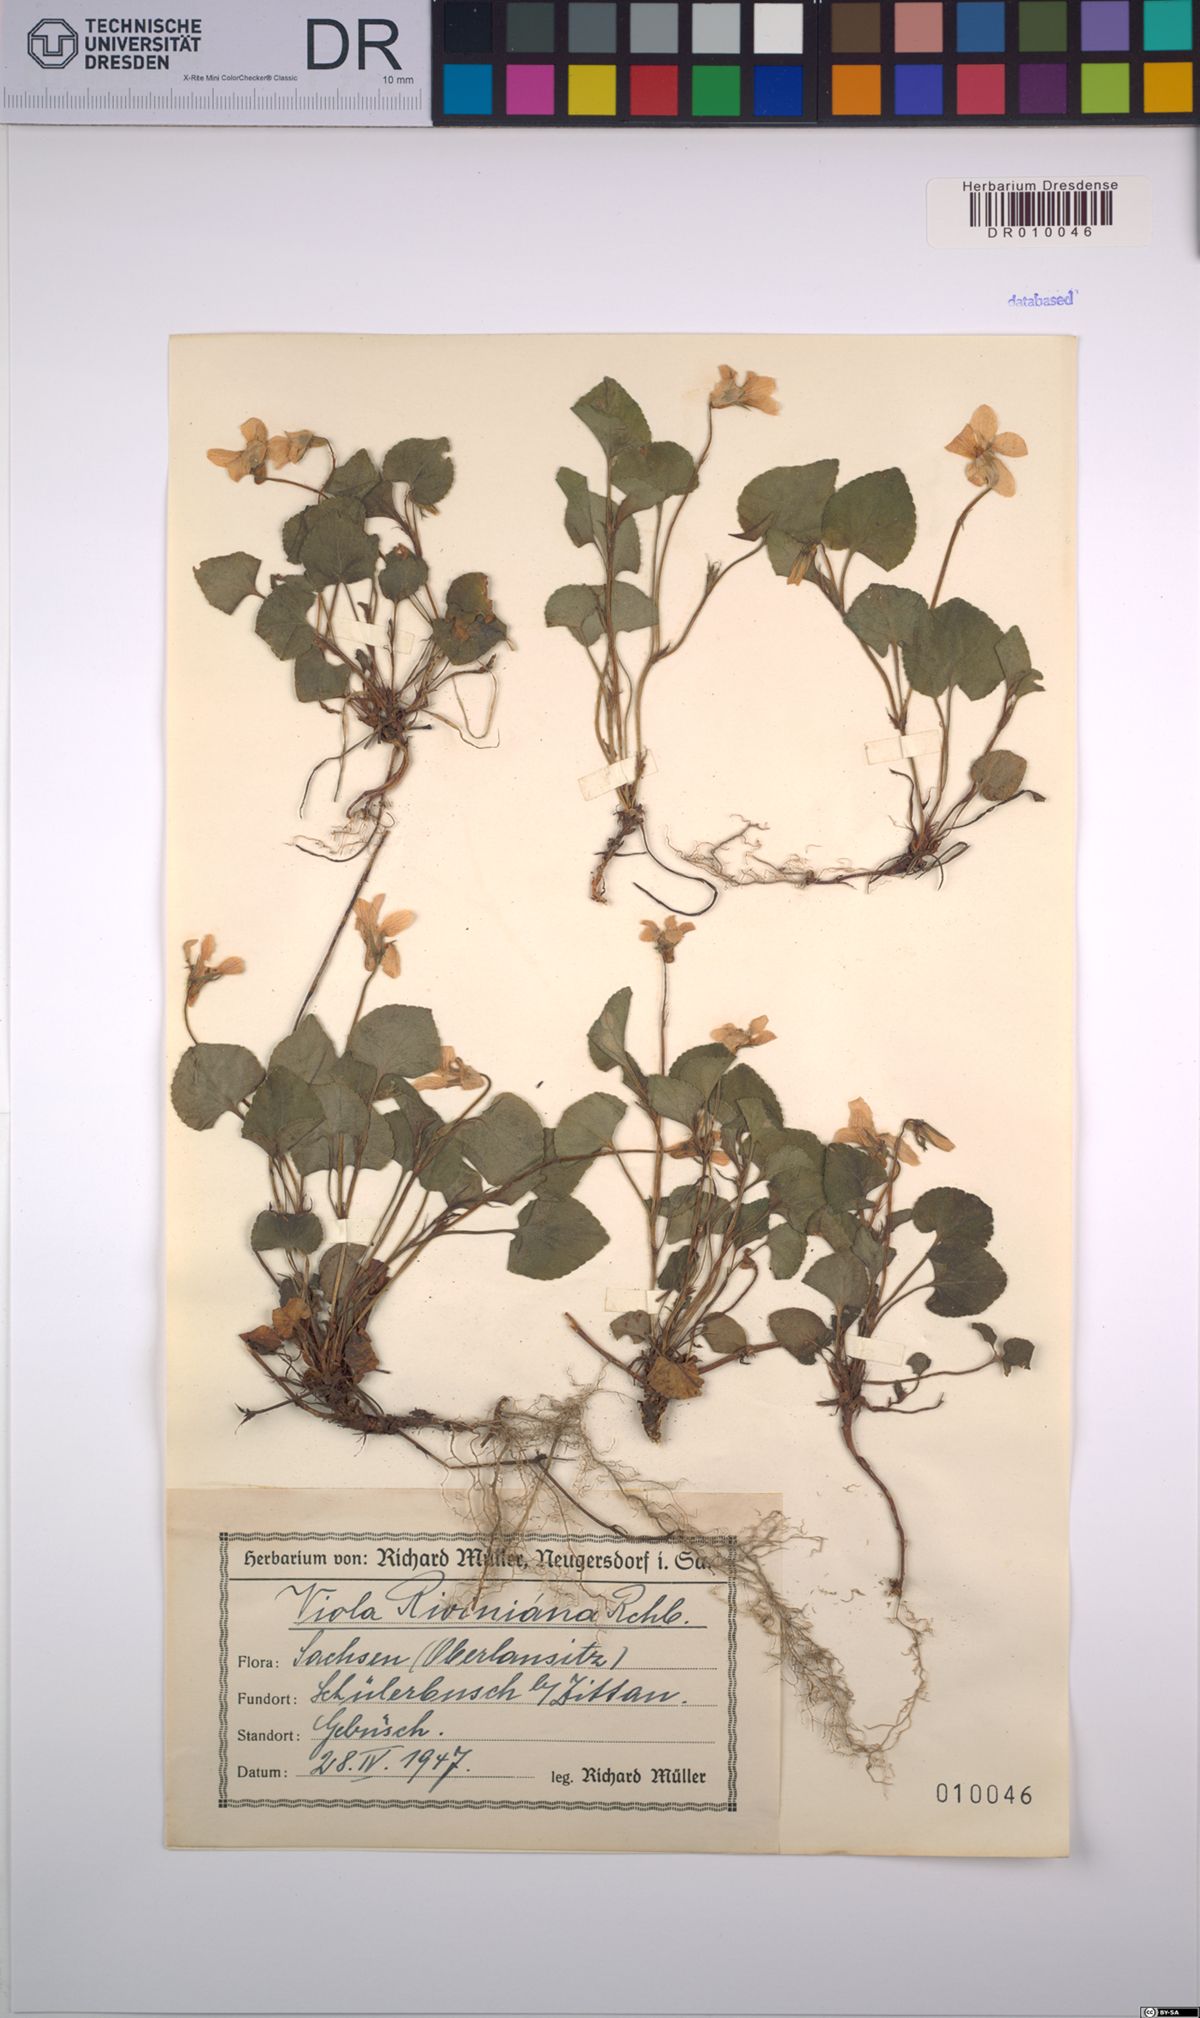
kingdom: Plantae
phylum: Tracheophyta
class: Magnoliopsida
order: Malpighiales
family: Violaceae
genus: Viola
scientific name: Viola riviniana
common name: Common dog-violet
